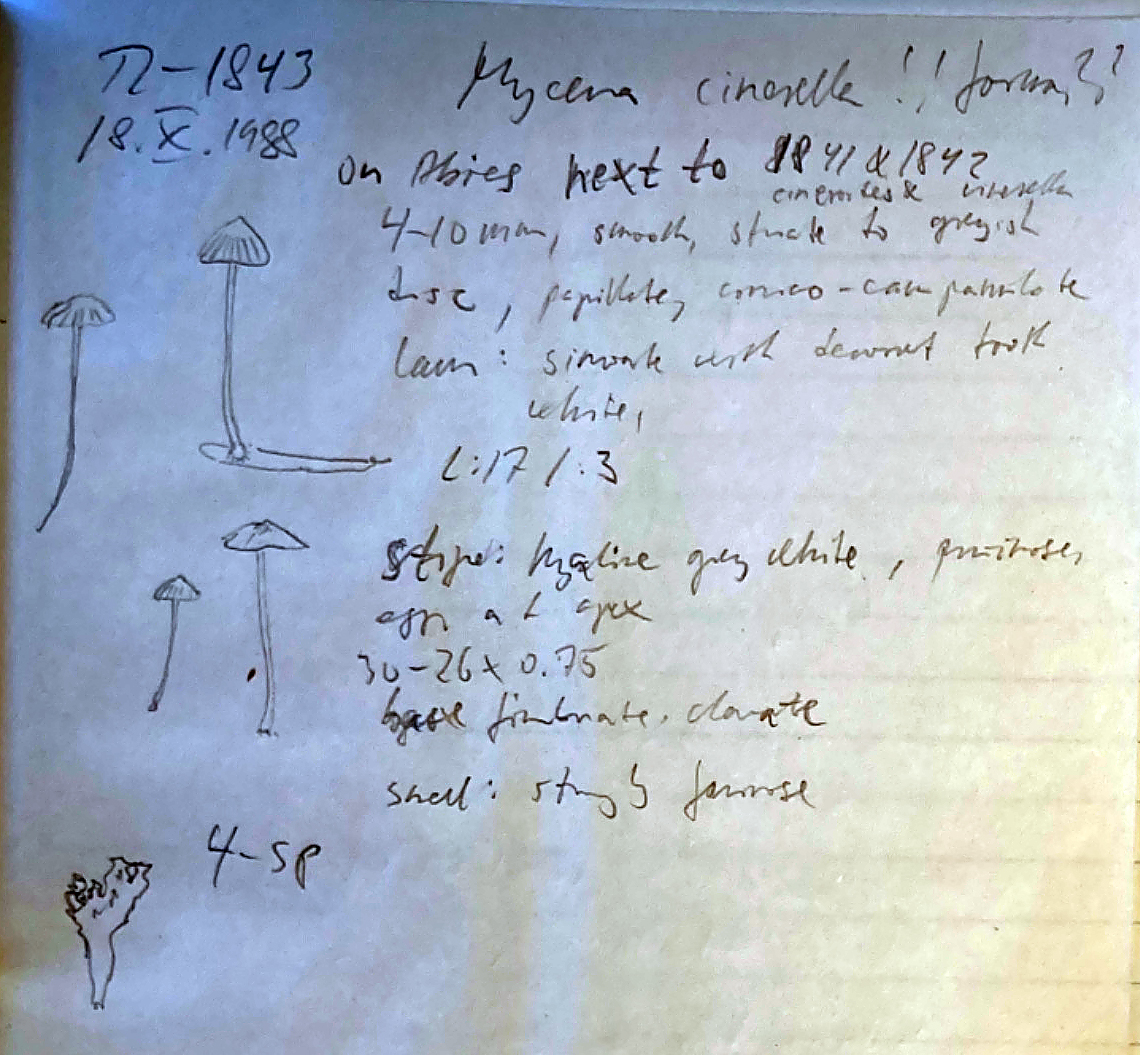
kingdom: Fungi
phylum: Basidiomycota
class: Agaricomycetes
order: Agaricales
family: Mycenaceae
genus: Mycena
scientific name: Mycena cinerella
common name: mel-huesvamp
